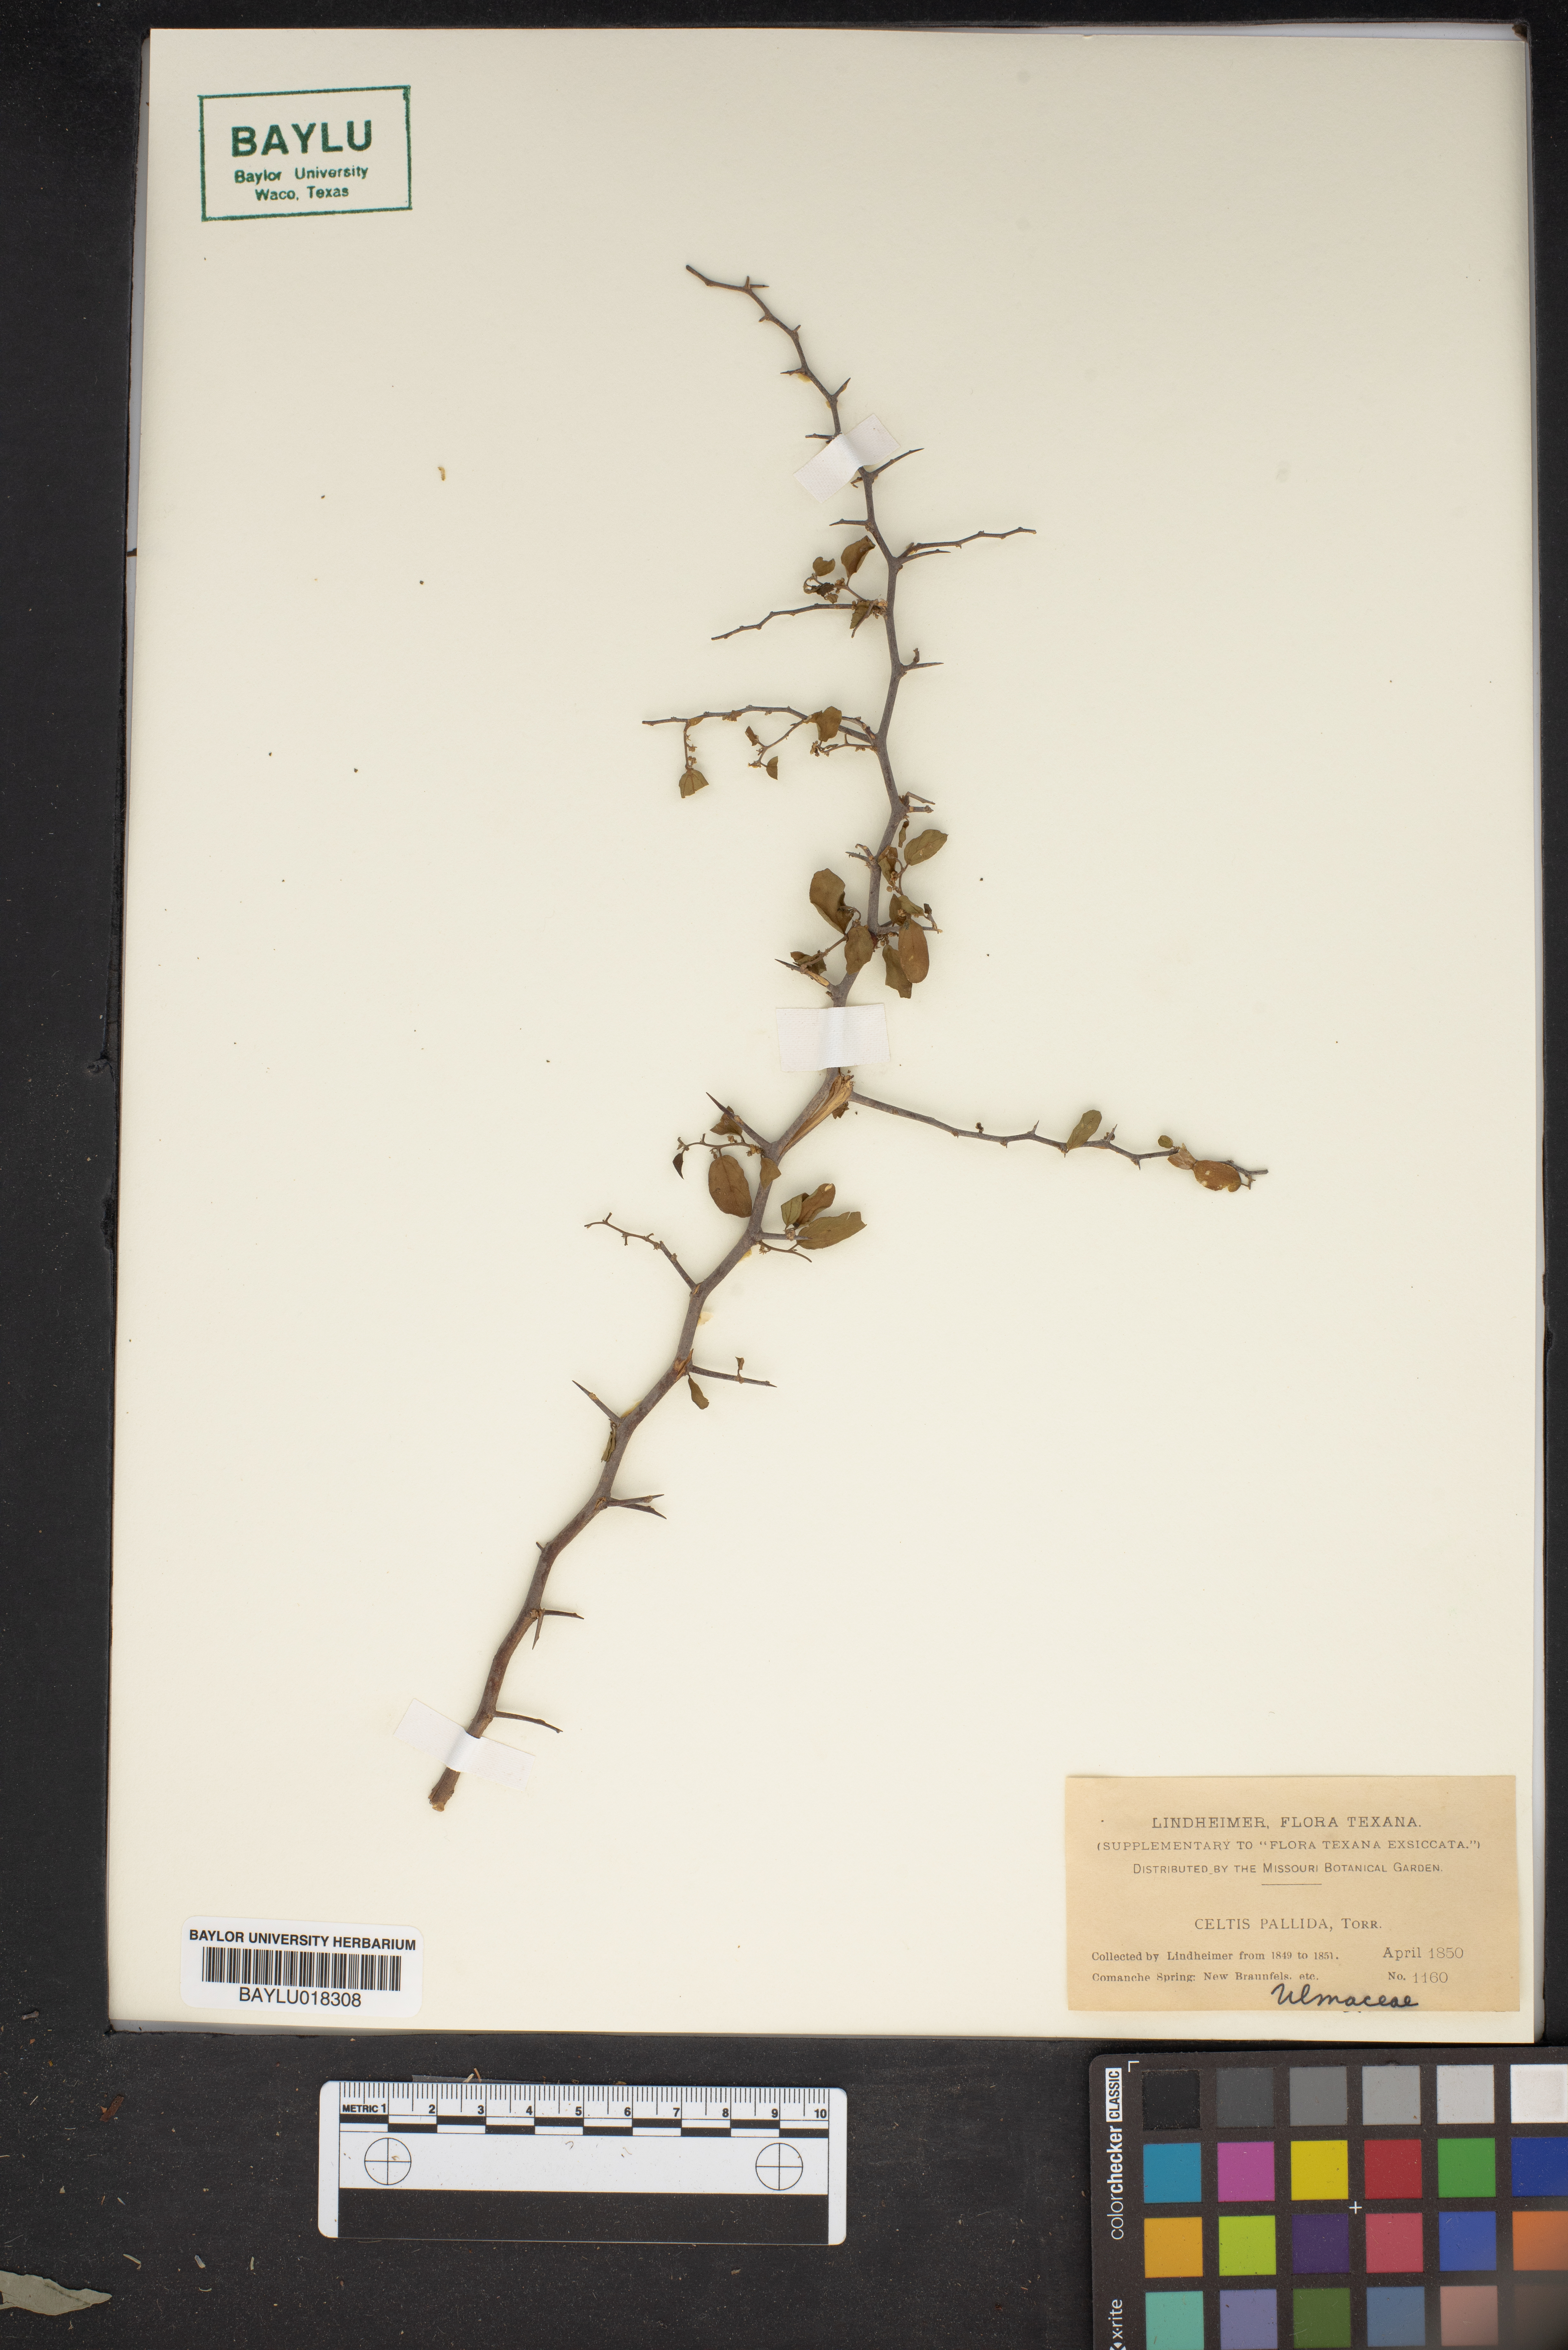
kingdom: Plantae
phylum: Tracheophyta
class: Magnoliopsida
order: Rosales
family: Cannabaceae
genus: Celtis
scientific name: Celtis pallida
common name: Desert hackberry
